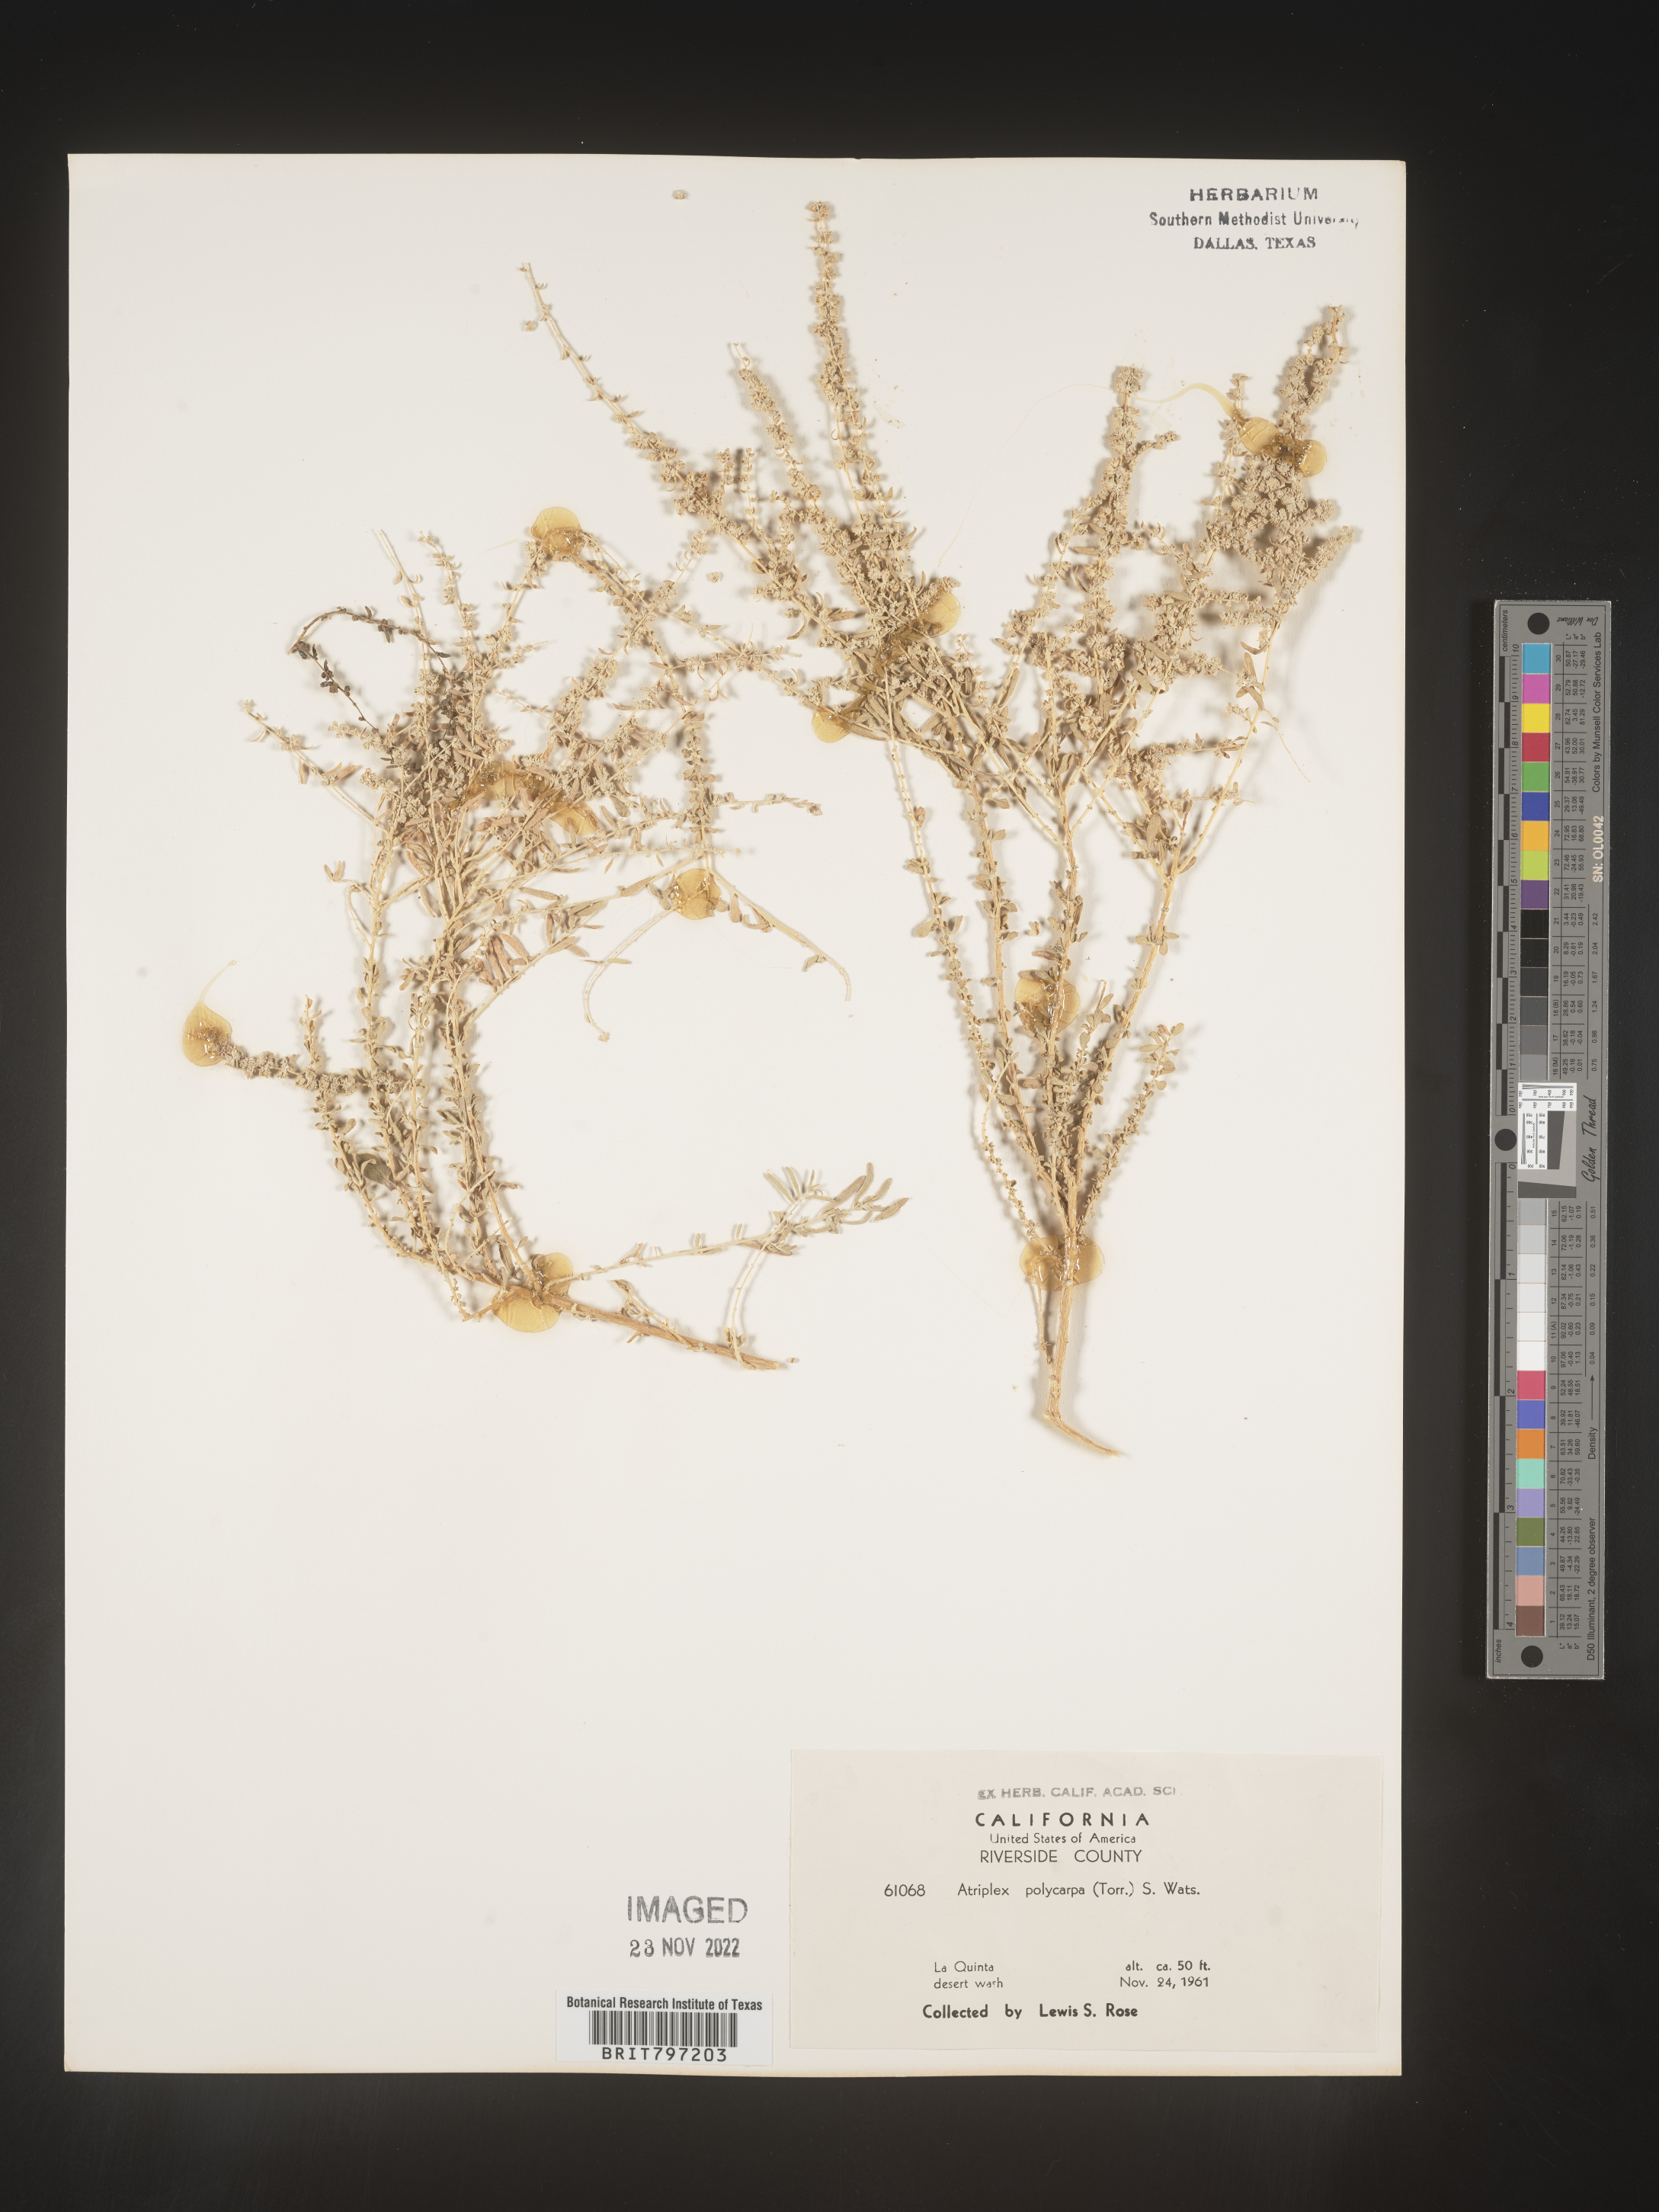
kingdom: Plantae
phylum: Tracheophyta
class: Magnoliopsida
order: Caryophyllales
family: Amaranthaceae
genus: Atriplex
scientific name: Atriplex polycarpa
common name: Desert saltbush
